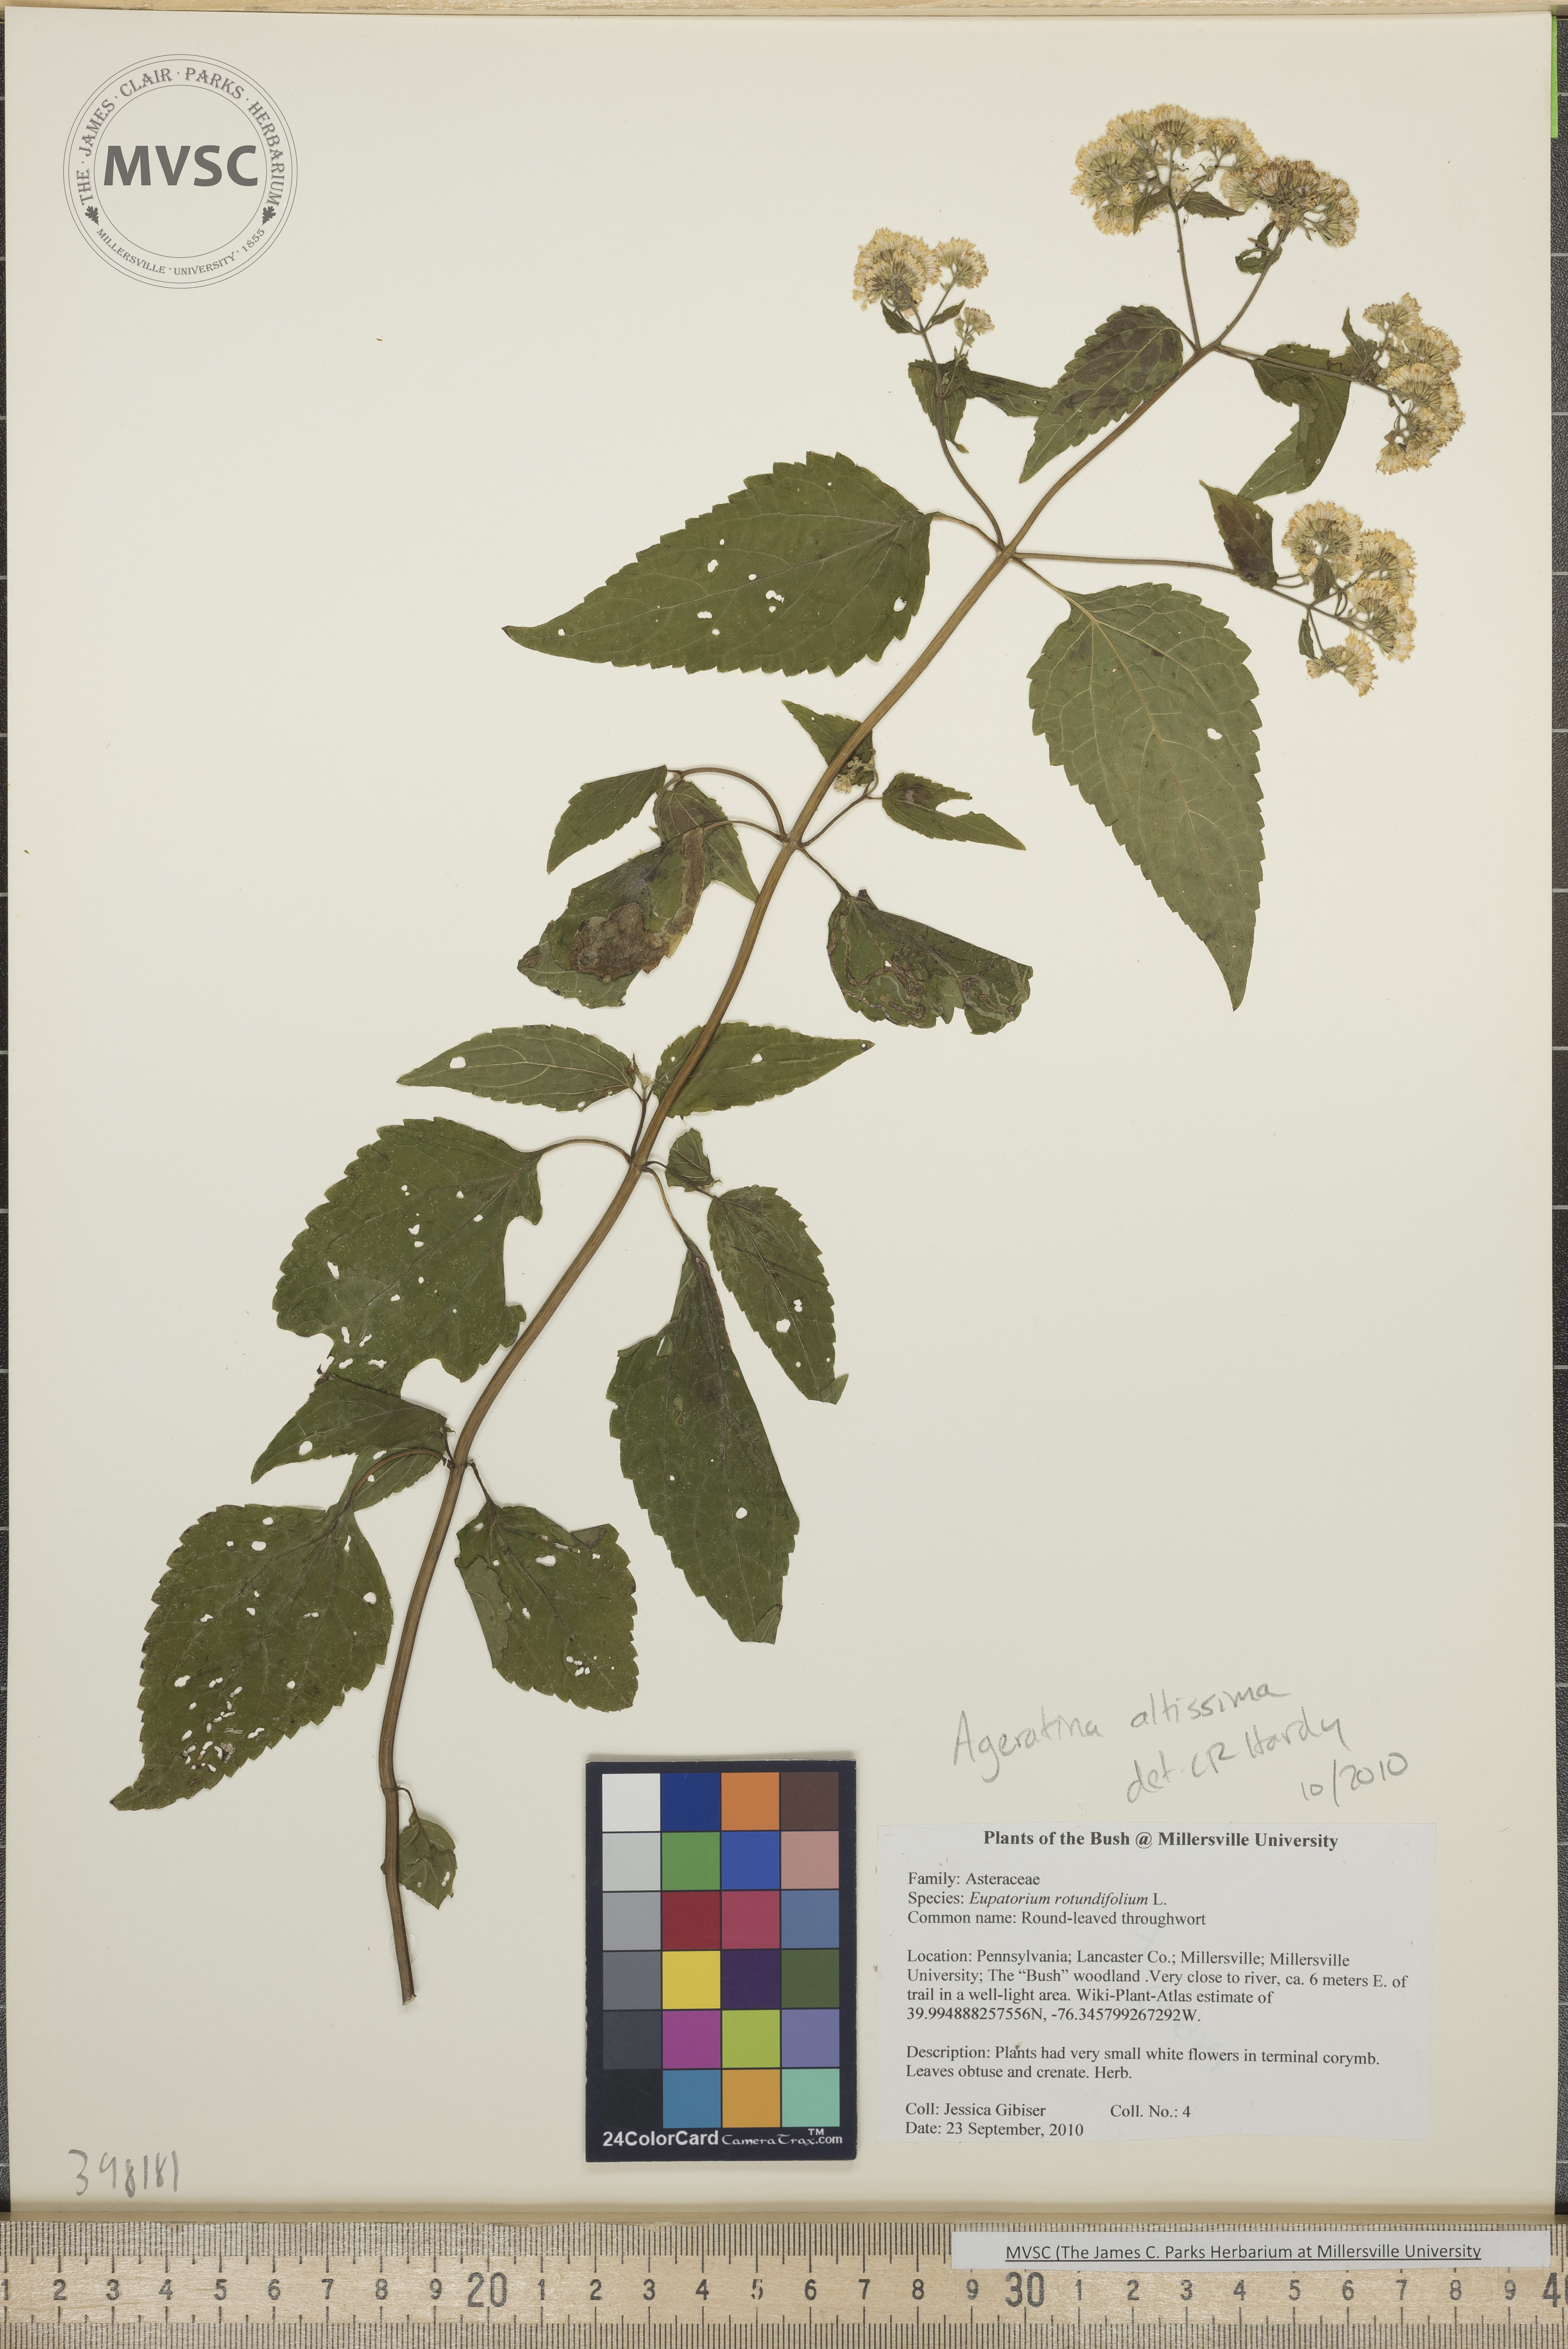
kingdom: Plantae
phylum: Tracheophyta
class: Magnoliopsida
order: Asterales
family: Asteraceae
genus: Ageratina
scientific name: Ageratina altissima
